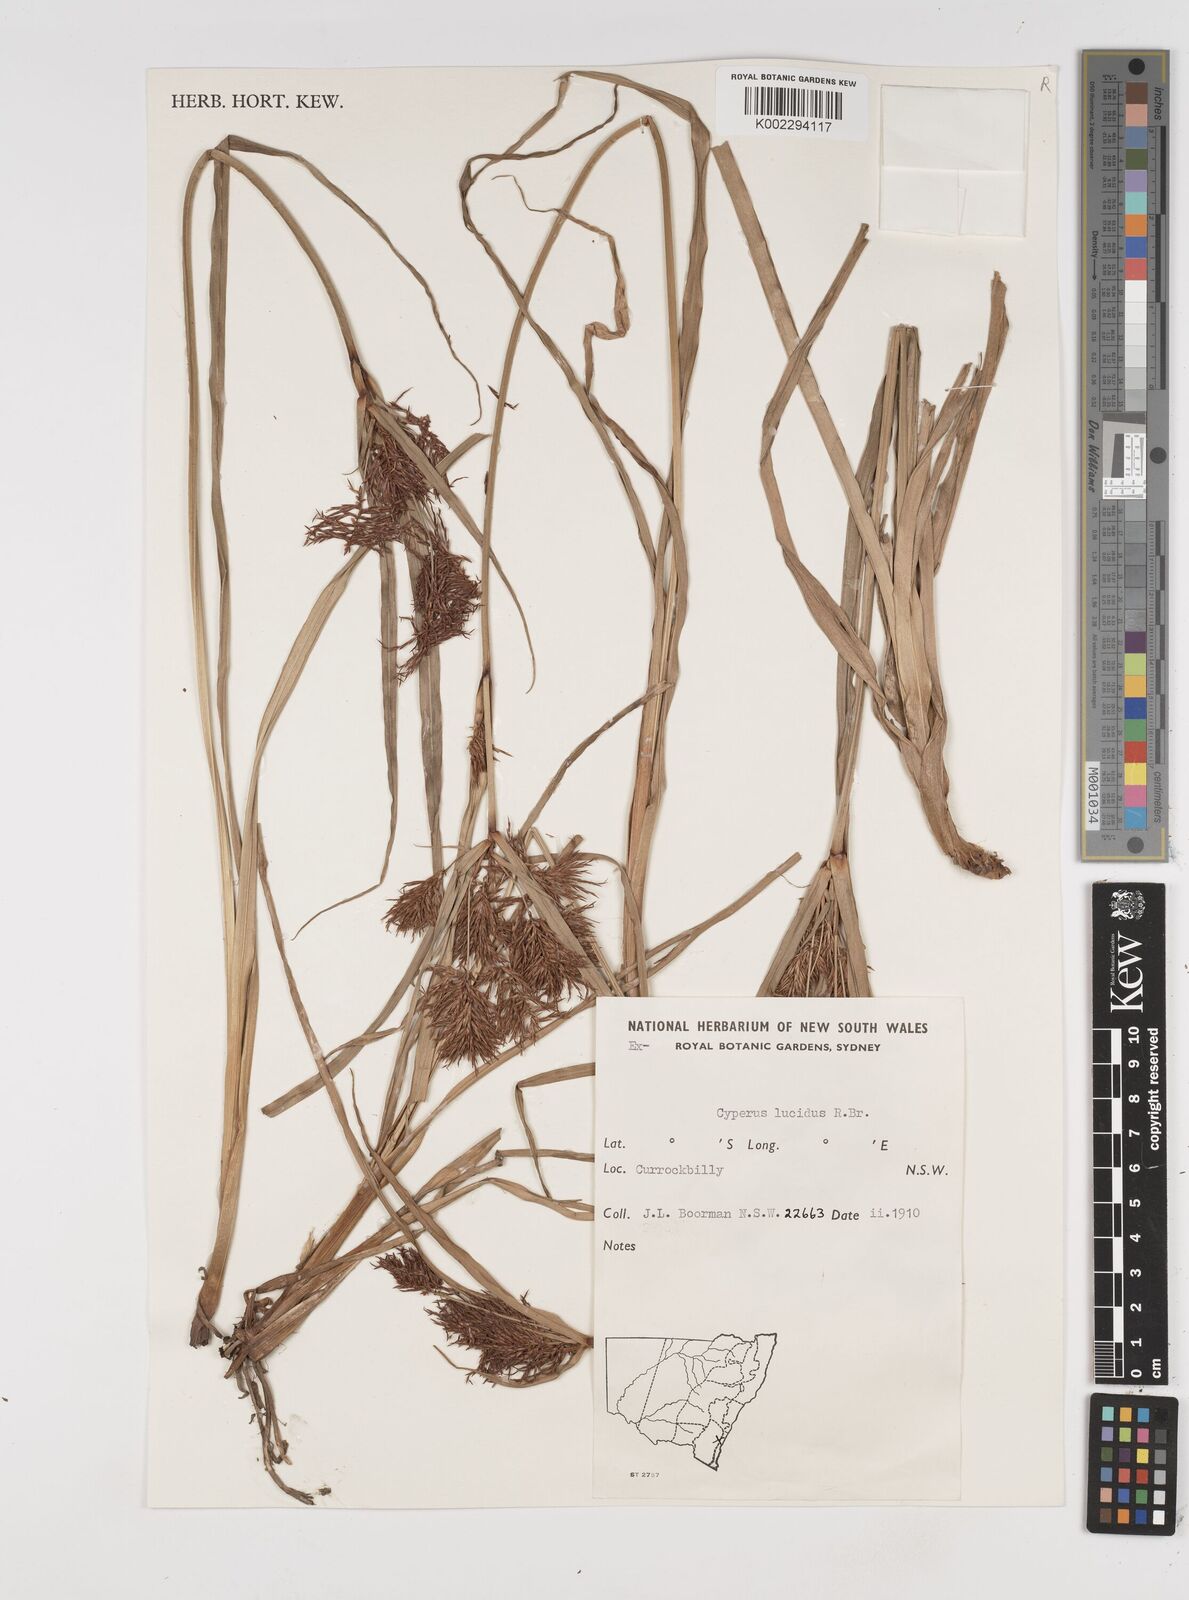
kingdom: Plantae
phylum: Tracheophyta
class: Liliopsida
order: Poales
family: Cyperaceae
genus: Cyperus
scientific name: Cyperus lucidus
